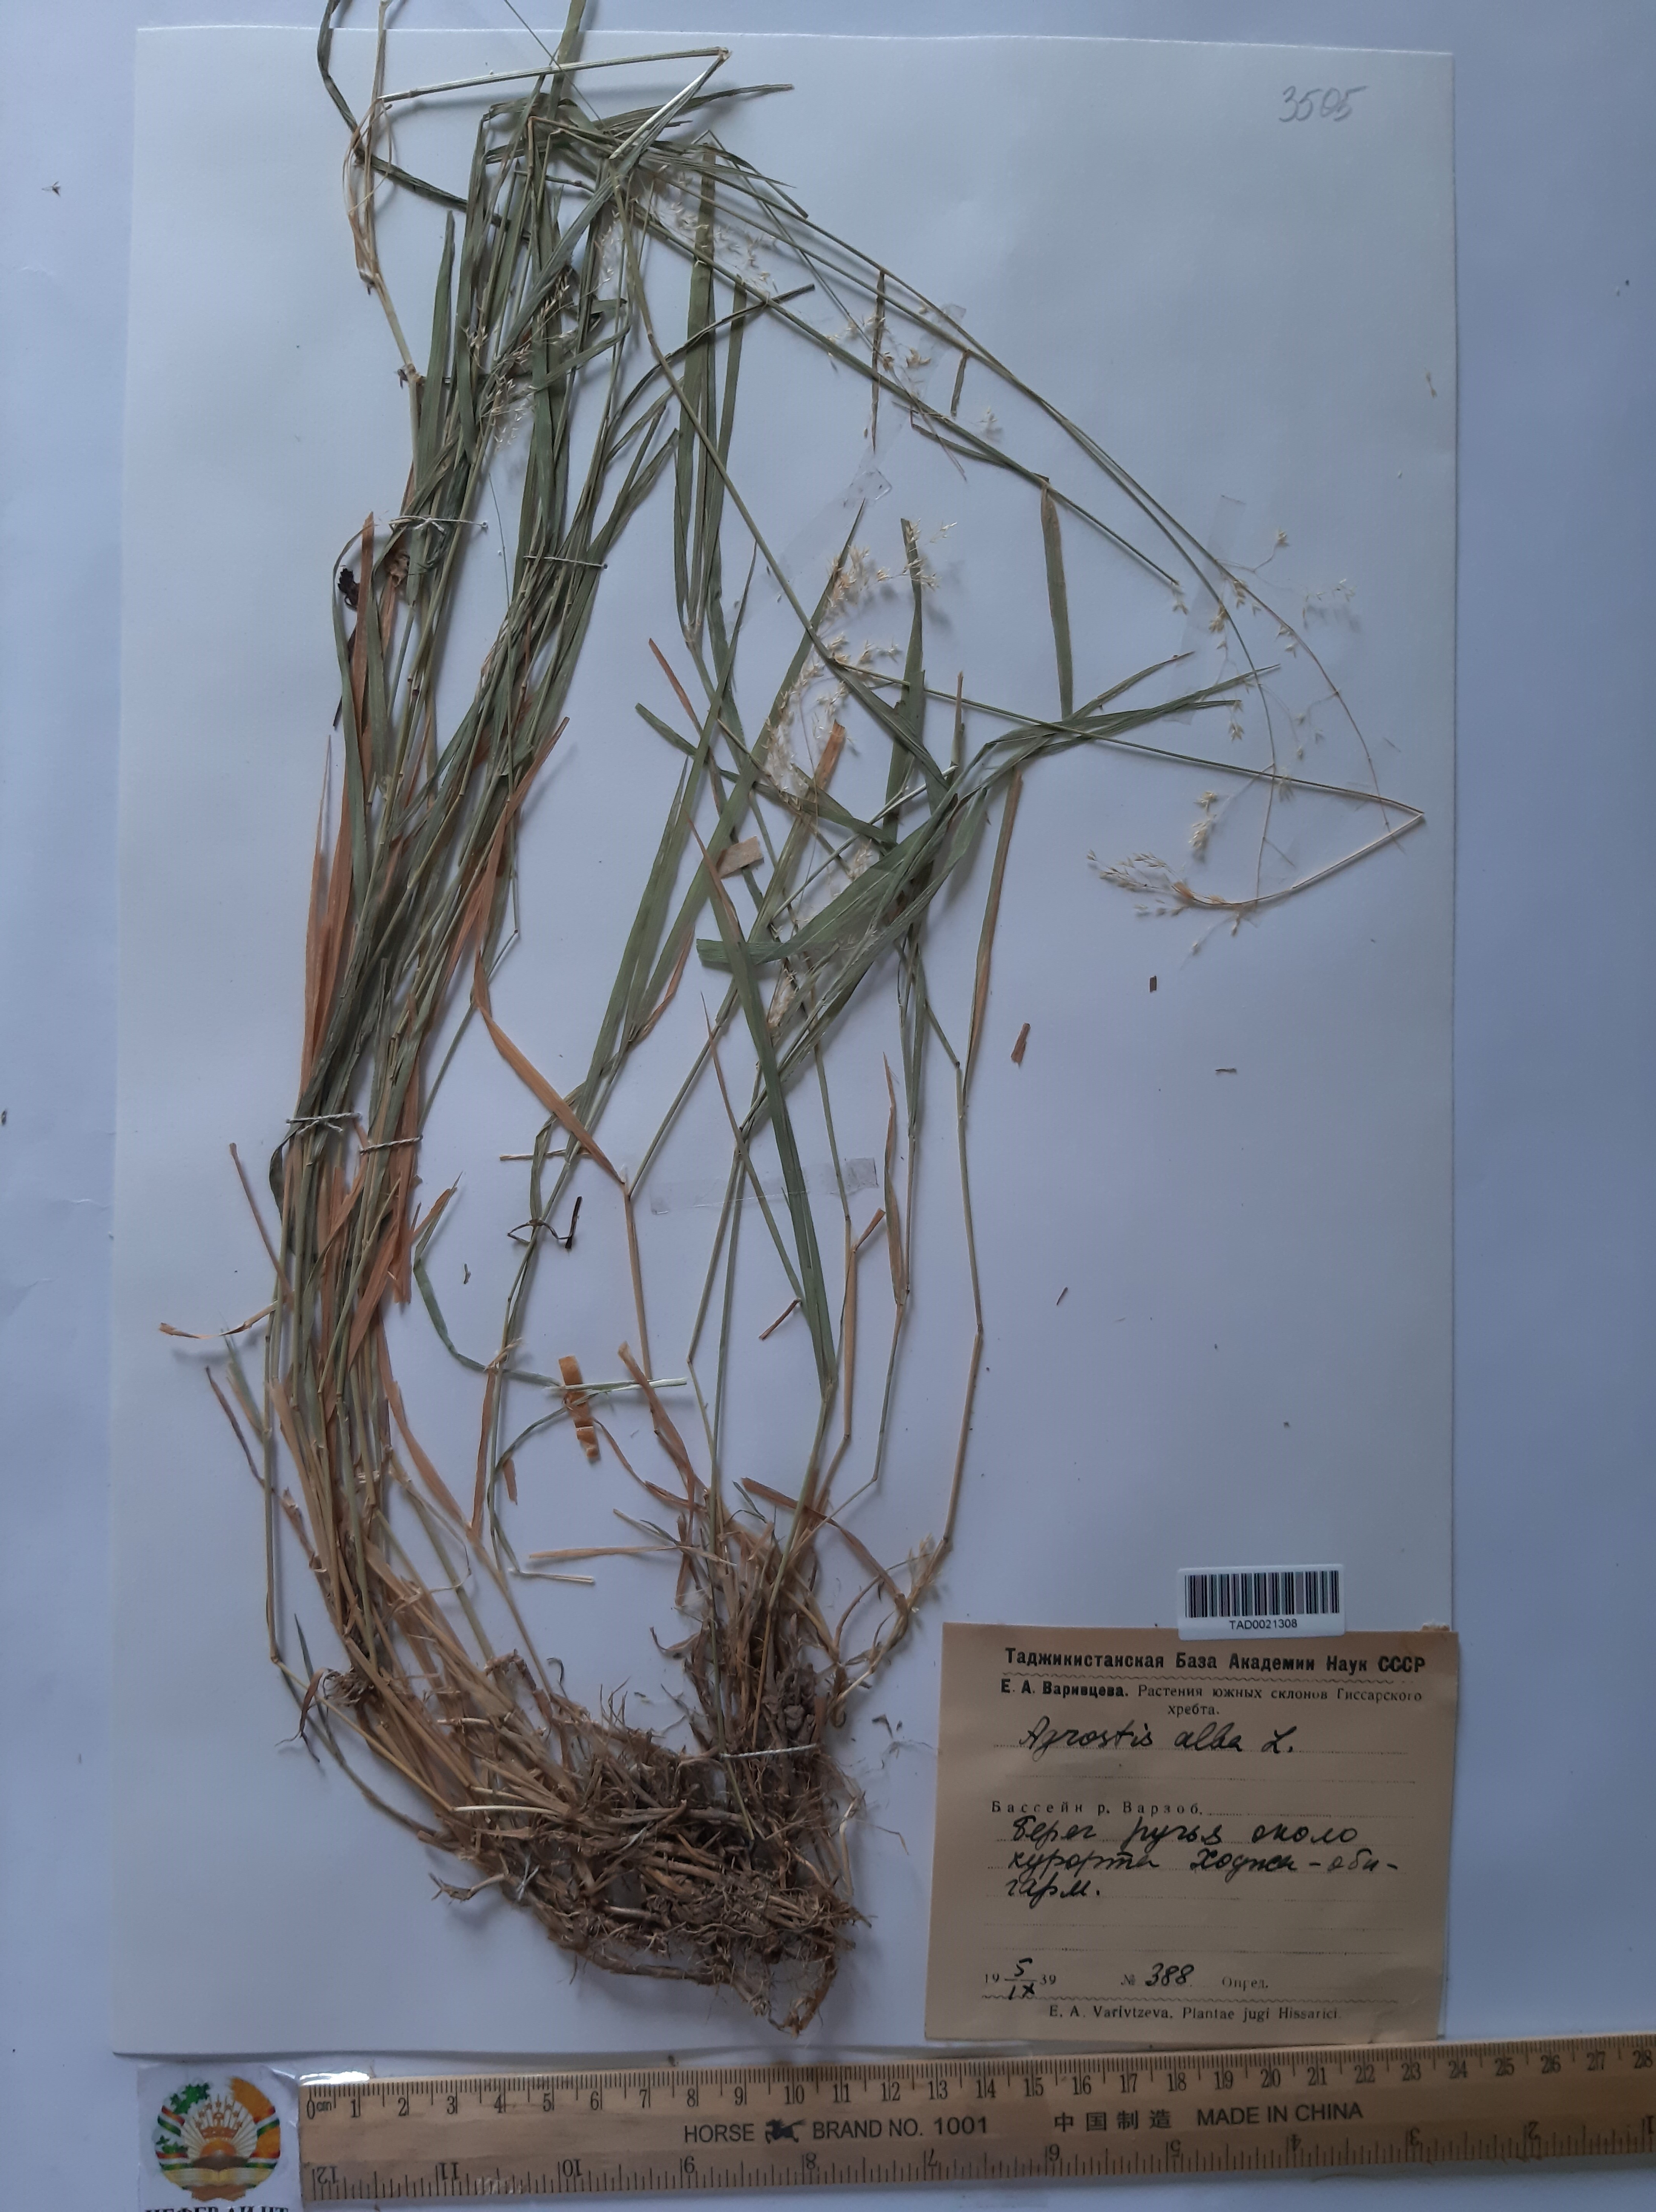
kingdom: Plantae
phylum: Tracheophyta
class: Liliopsida
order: Poales
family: Poaceae
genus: Poa
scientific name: Poa nemoralis
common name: Wood bluegrass
